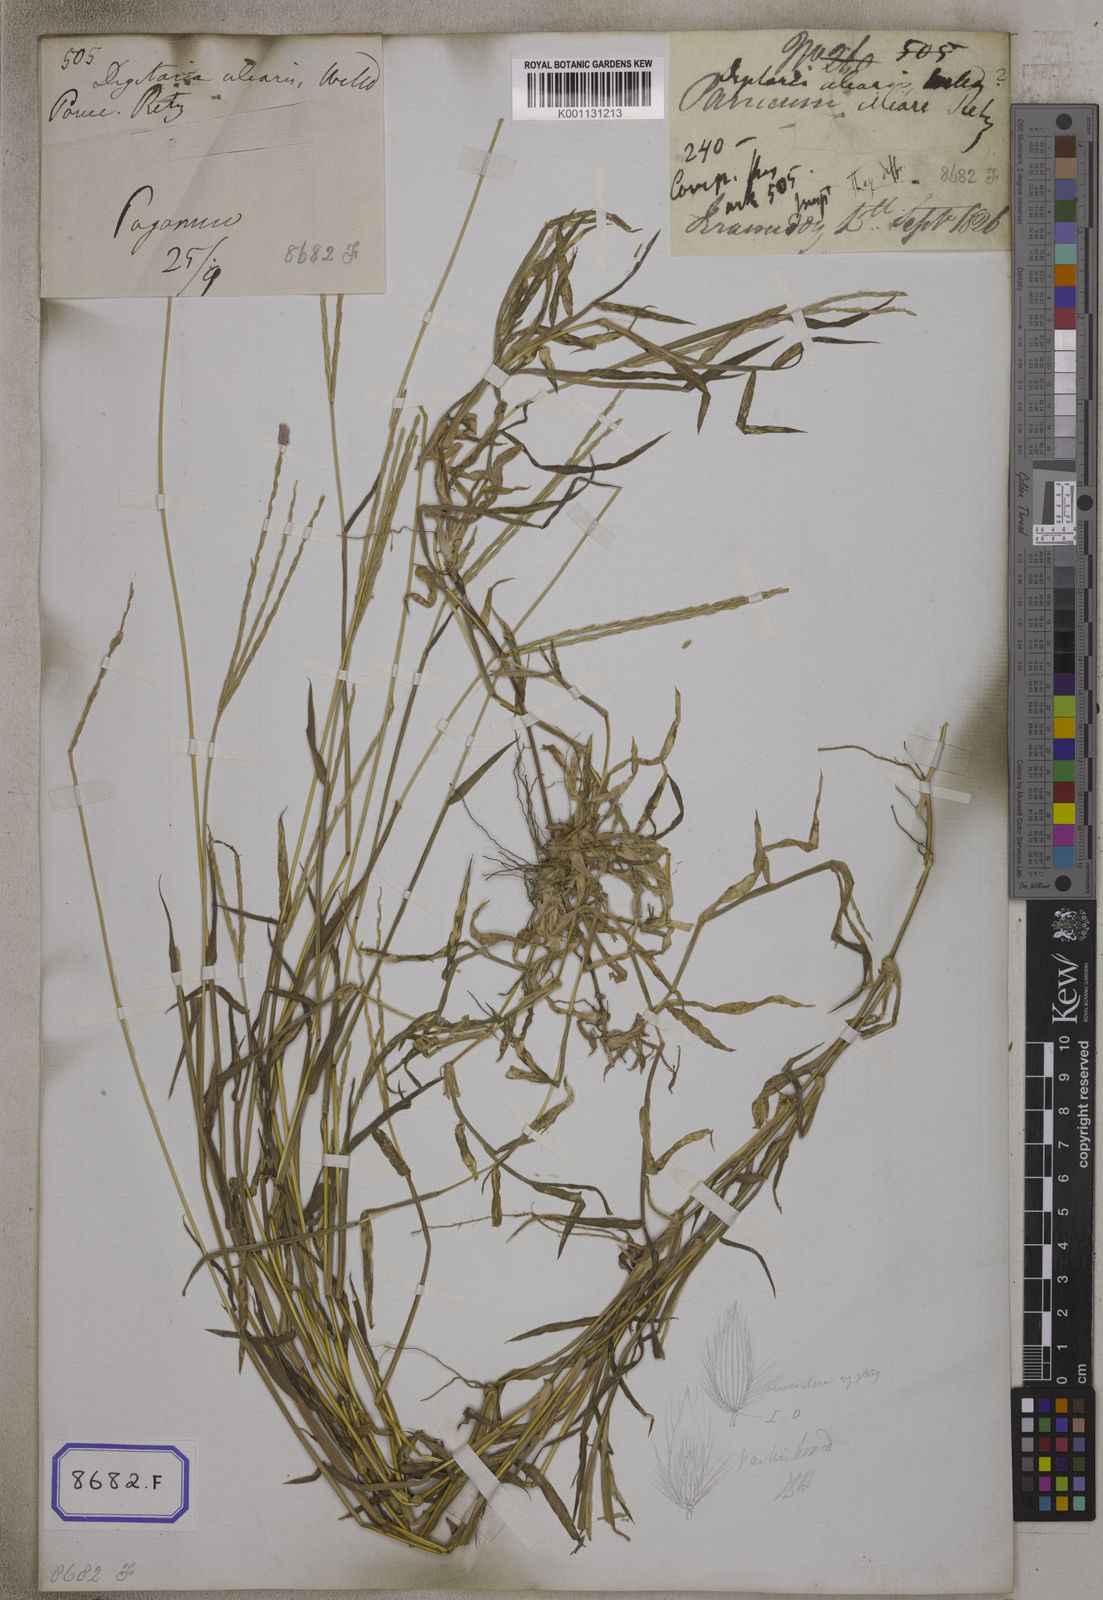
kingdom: Plantae
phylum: Tracheophyta
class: Liliopsida
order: Poales
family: Poaceae
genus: Digitaria
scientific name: Digitaria ciliaris
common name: Tropical finger-grass
